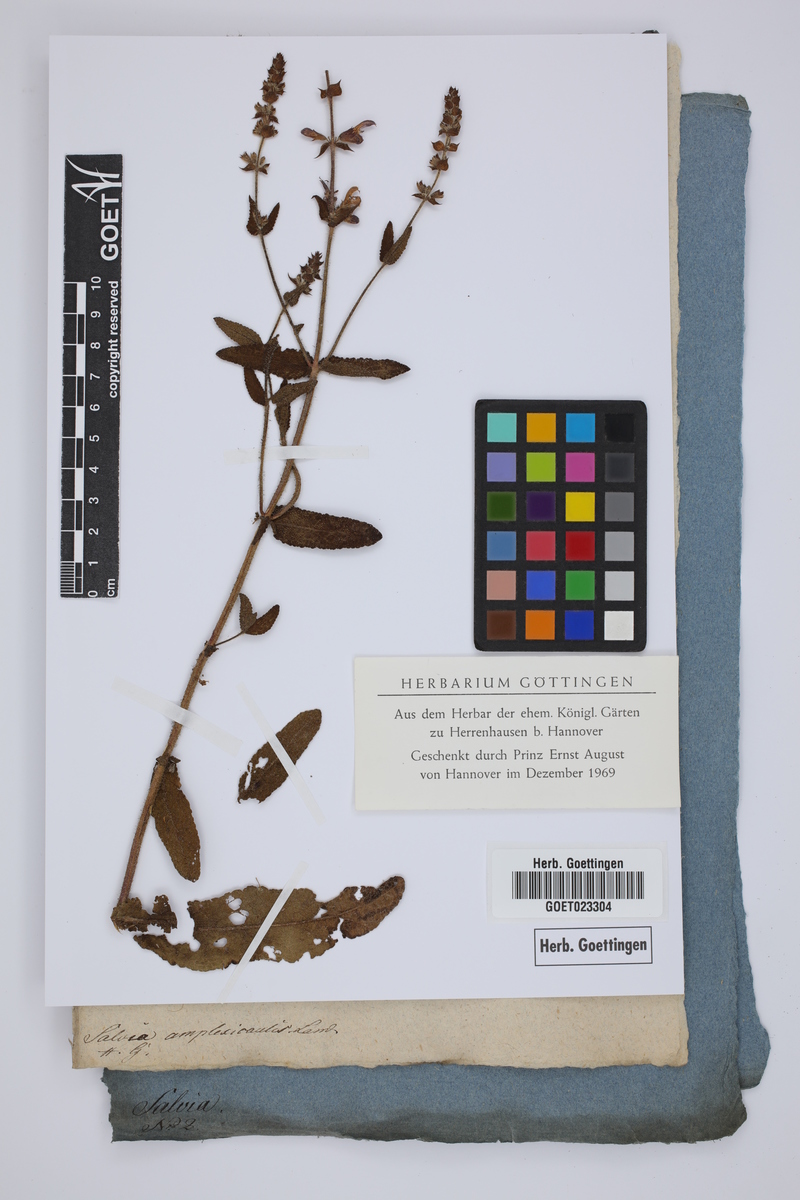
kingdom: Plantae
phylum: Tracheophyta
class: Magnoliopsida
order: Lamiales
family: Lamiaceae
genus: Salvia
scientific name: Salvia amplexicaulis
